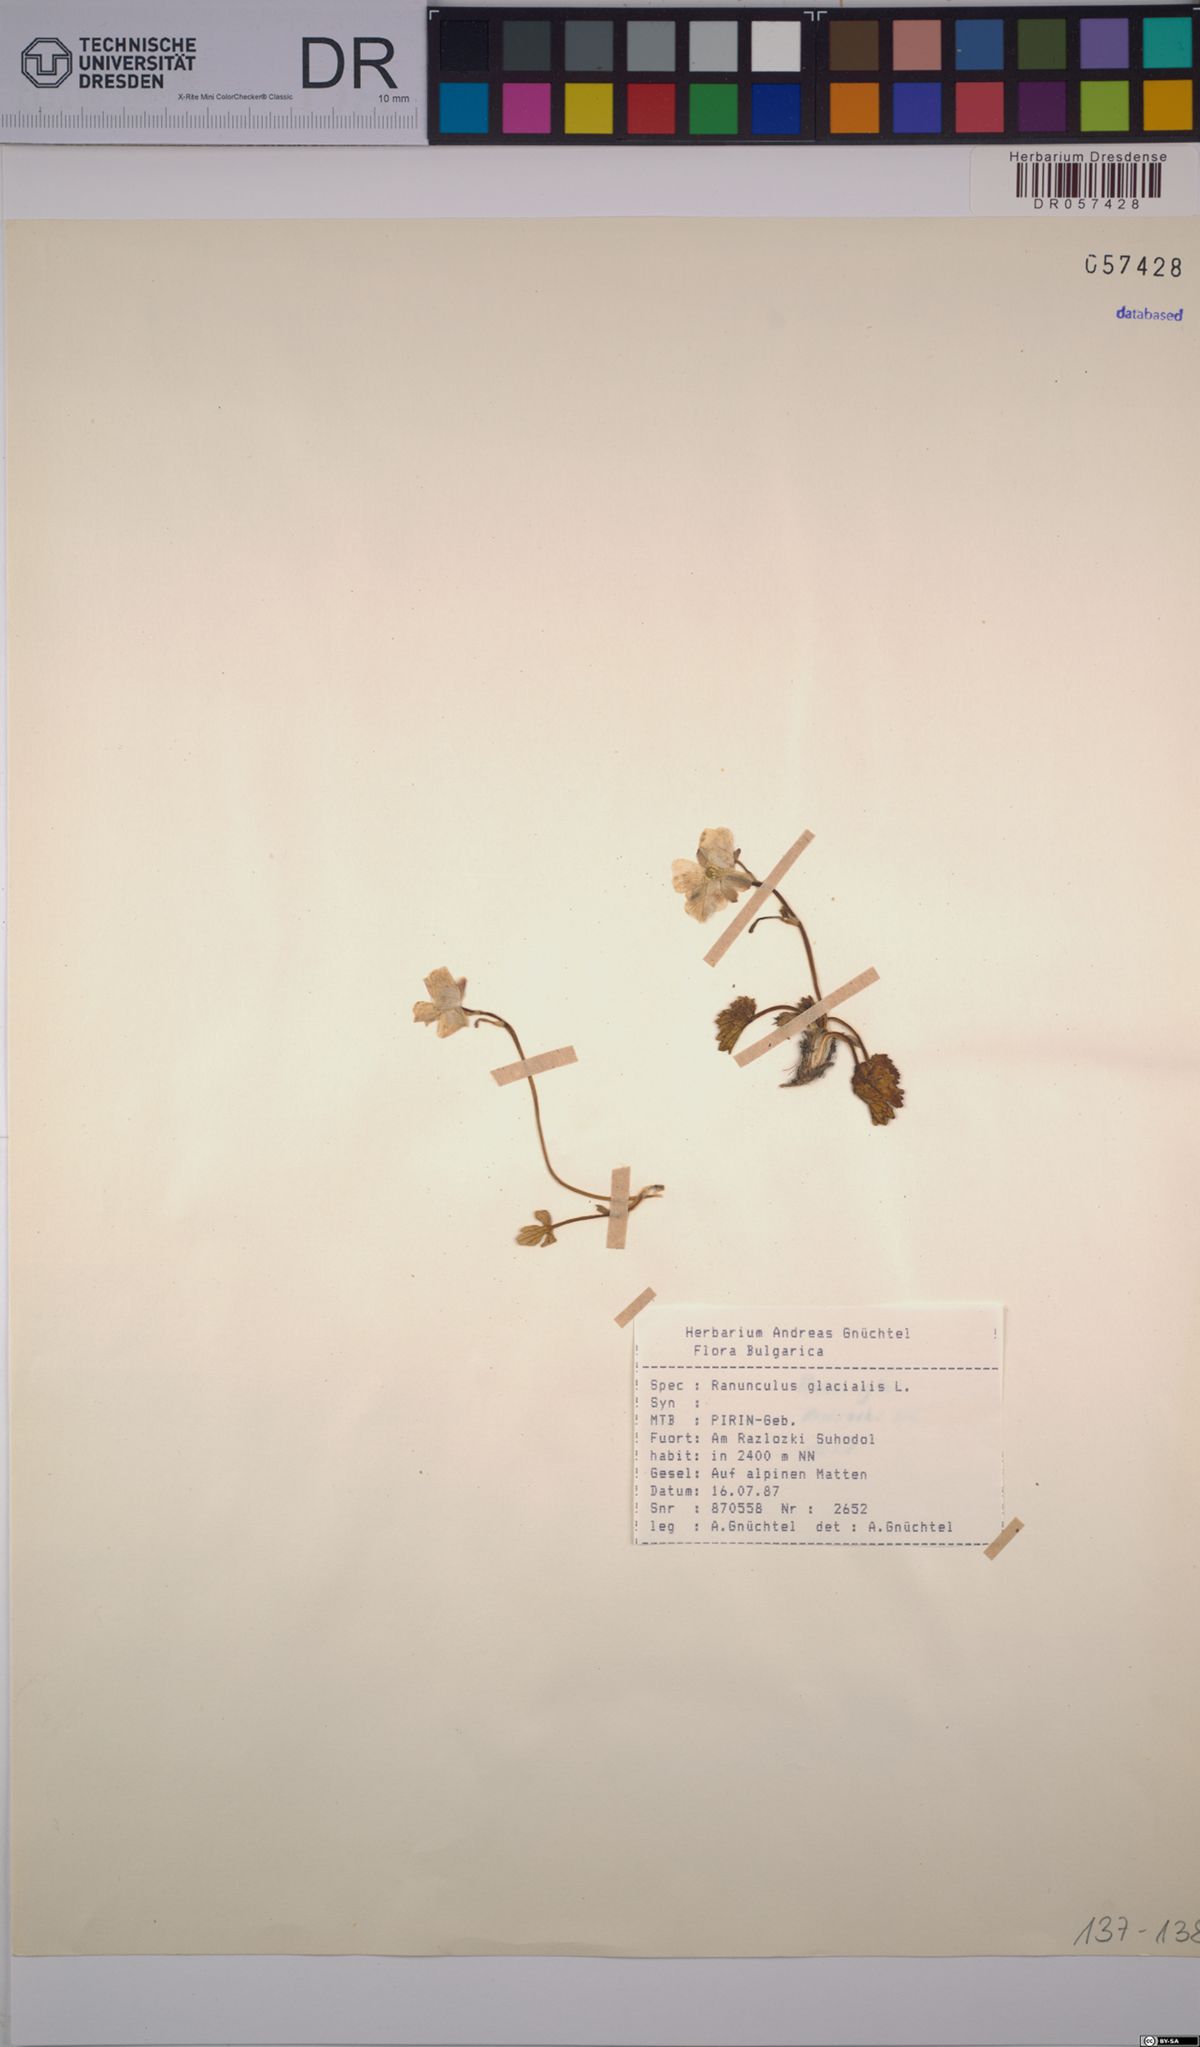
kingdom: Plantae
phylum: Tracheophyta
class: Magnoliopsida
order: Ranunculales
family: Ranunculaceae
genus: Ranunculus
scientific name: Ranunculus glacialis
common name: Glacier buttercup
